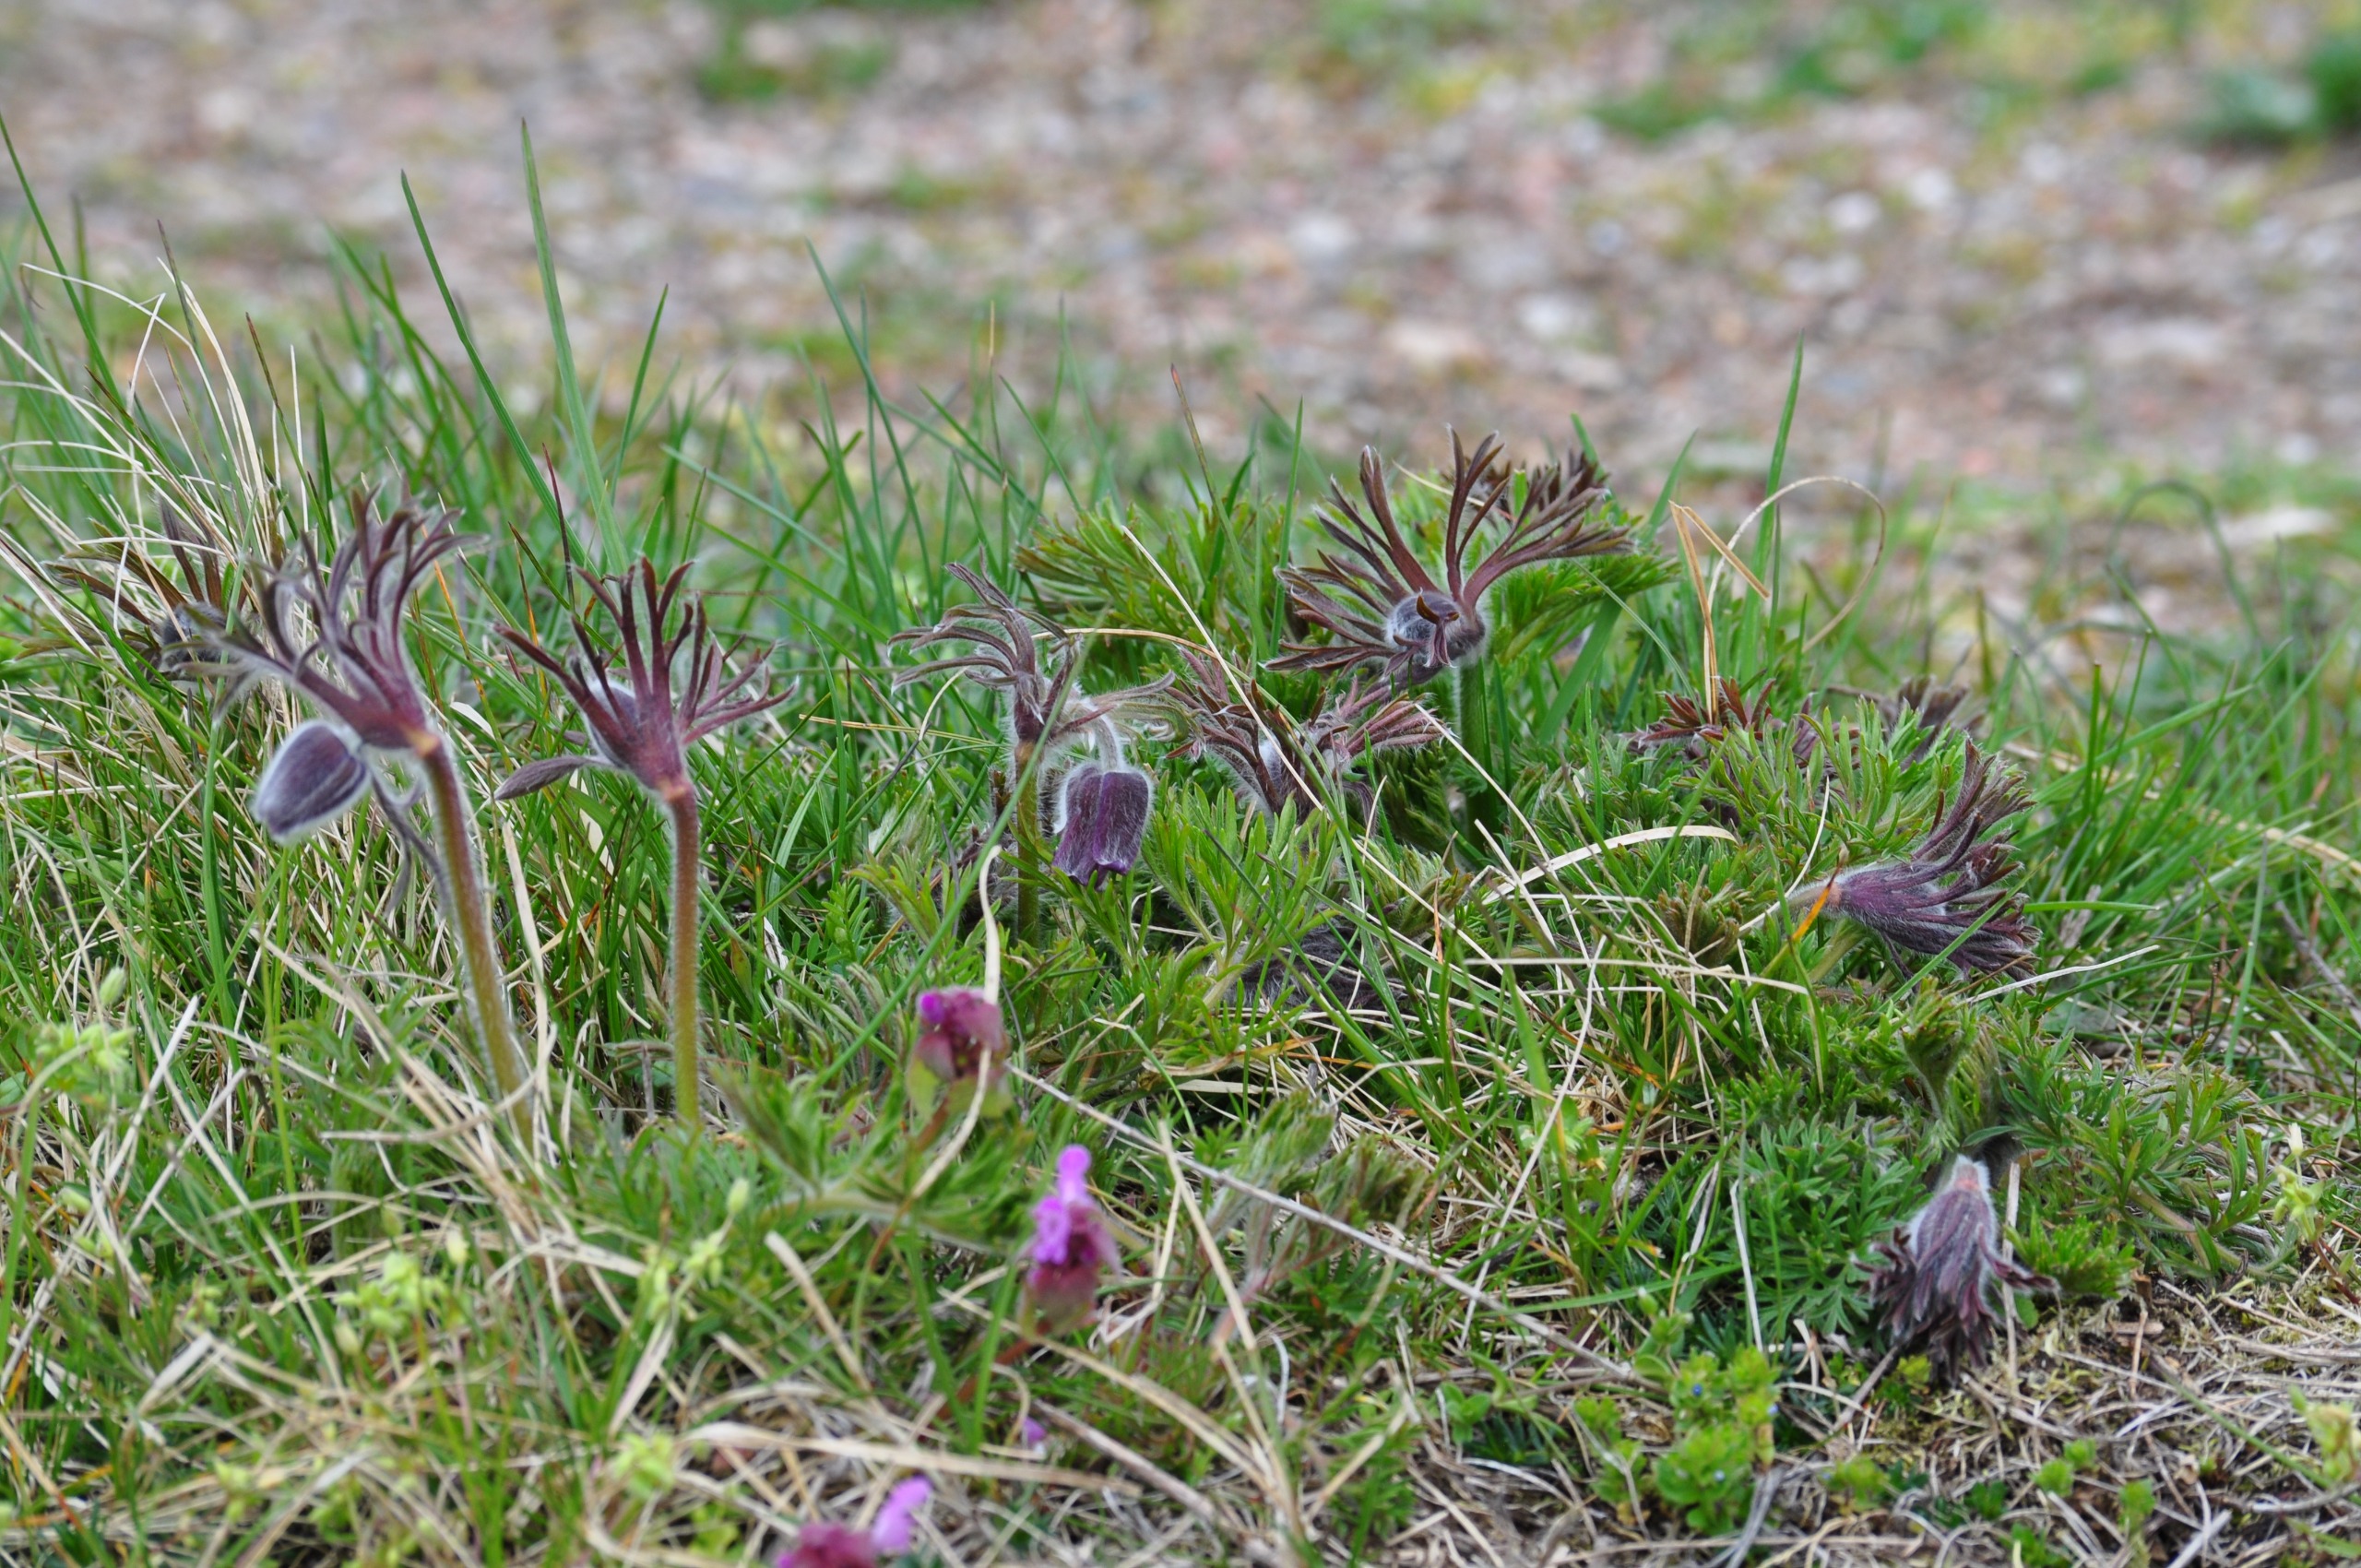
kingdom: Plantae
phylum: Tracheophyta
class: Magnoliopsida
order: Ranunculales
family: Ranunculaceae
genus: Pulsatilla
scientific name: Pulsatilla pratensis
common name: Nikkende kobjælde
